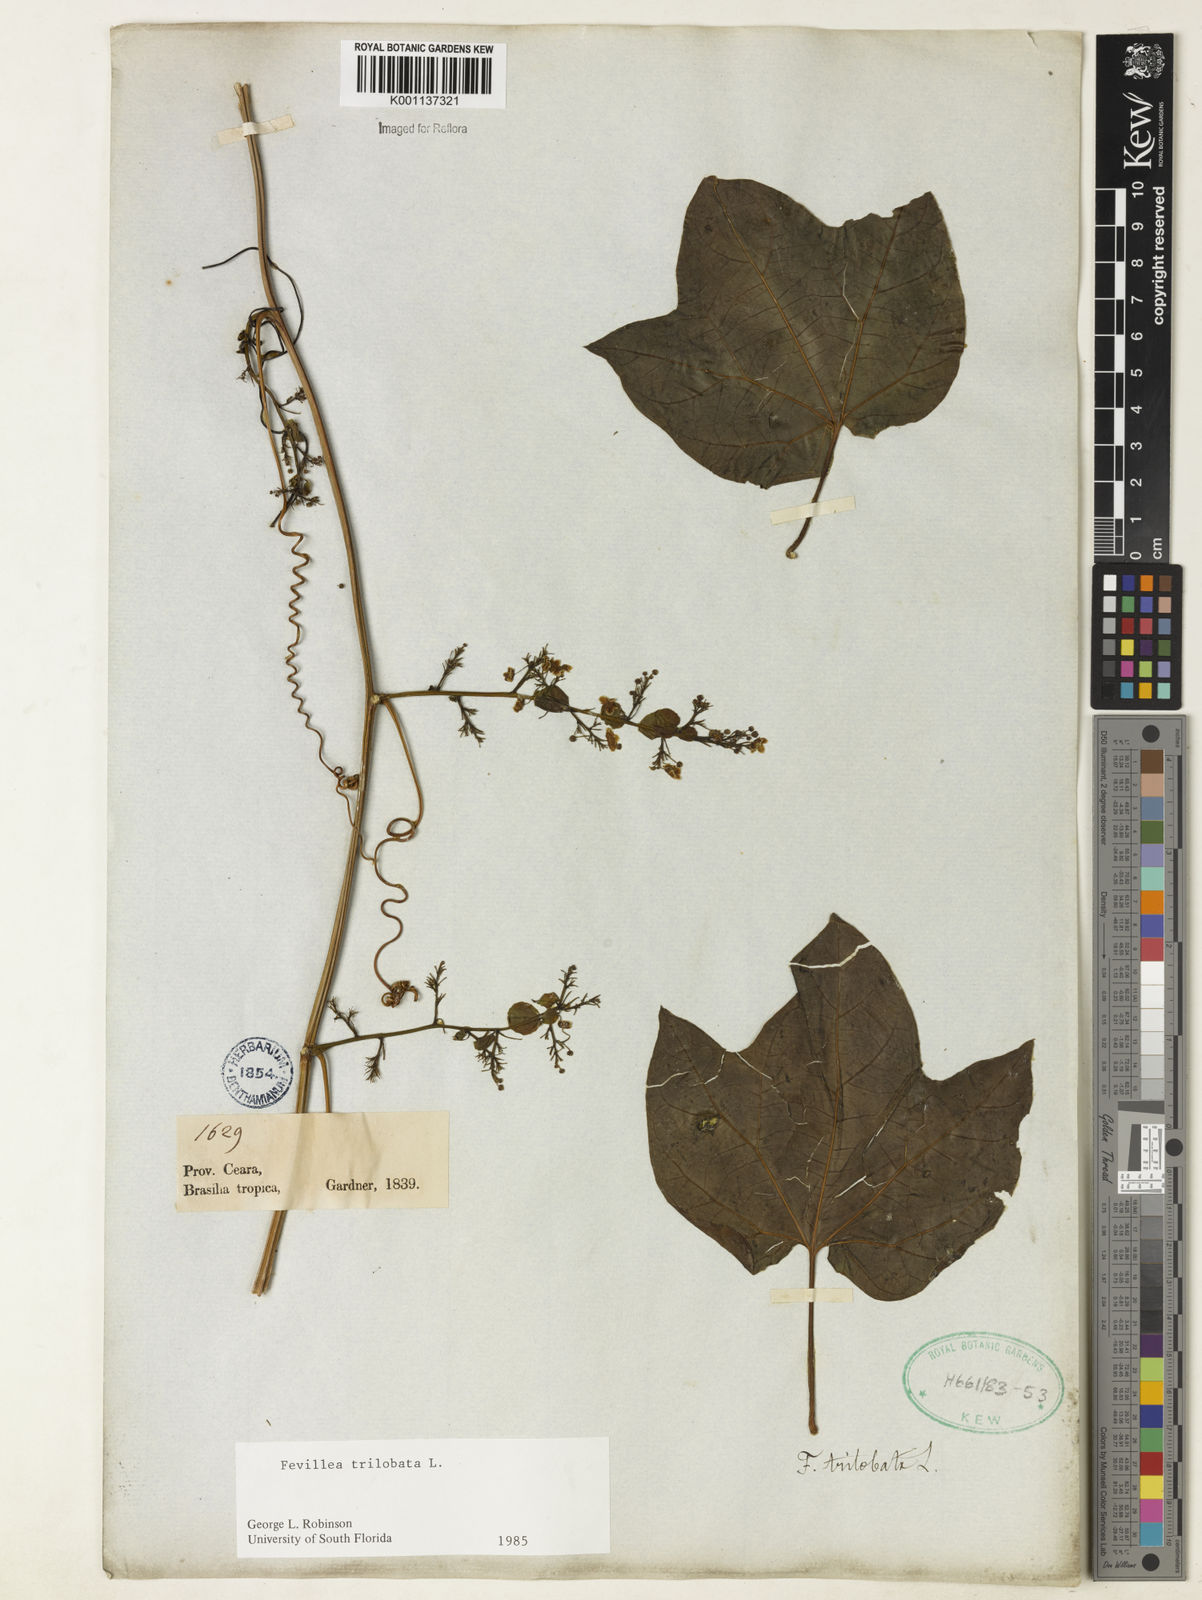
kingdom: Plantae
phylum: Tracheophyta
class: Magnoliopsida
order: Cucurbitales
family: Cucurbitaceae
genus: Fevillea
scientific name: Fevillea trilobata
